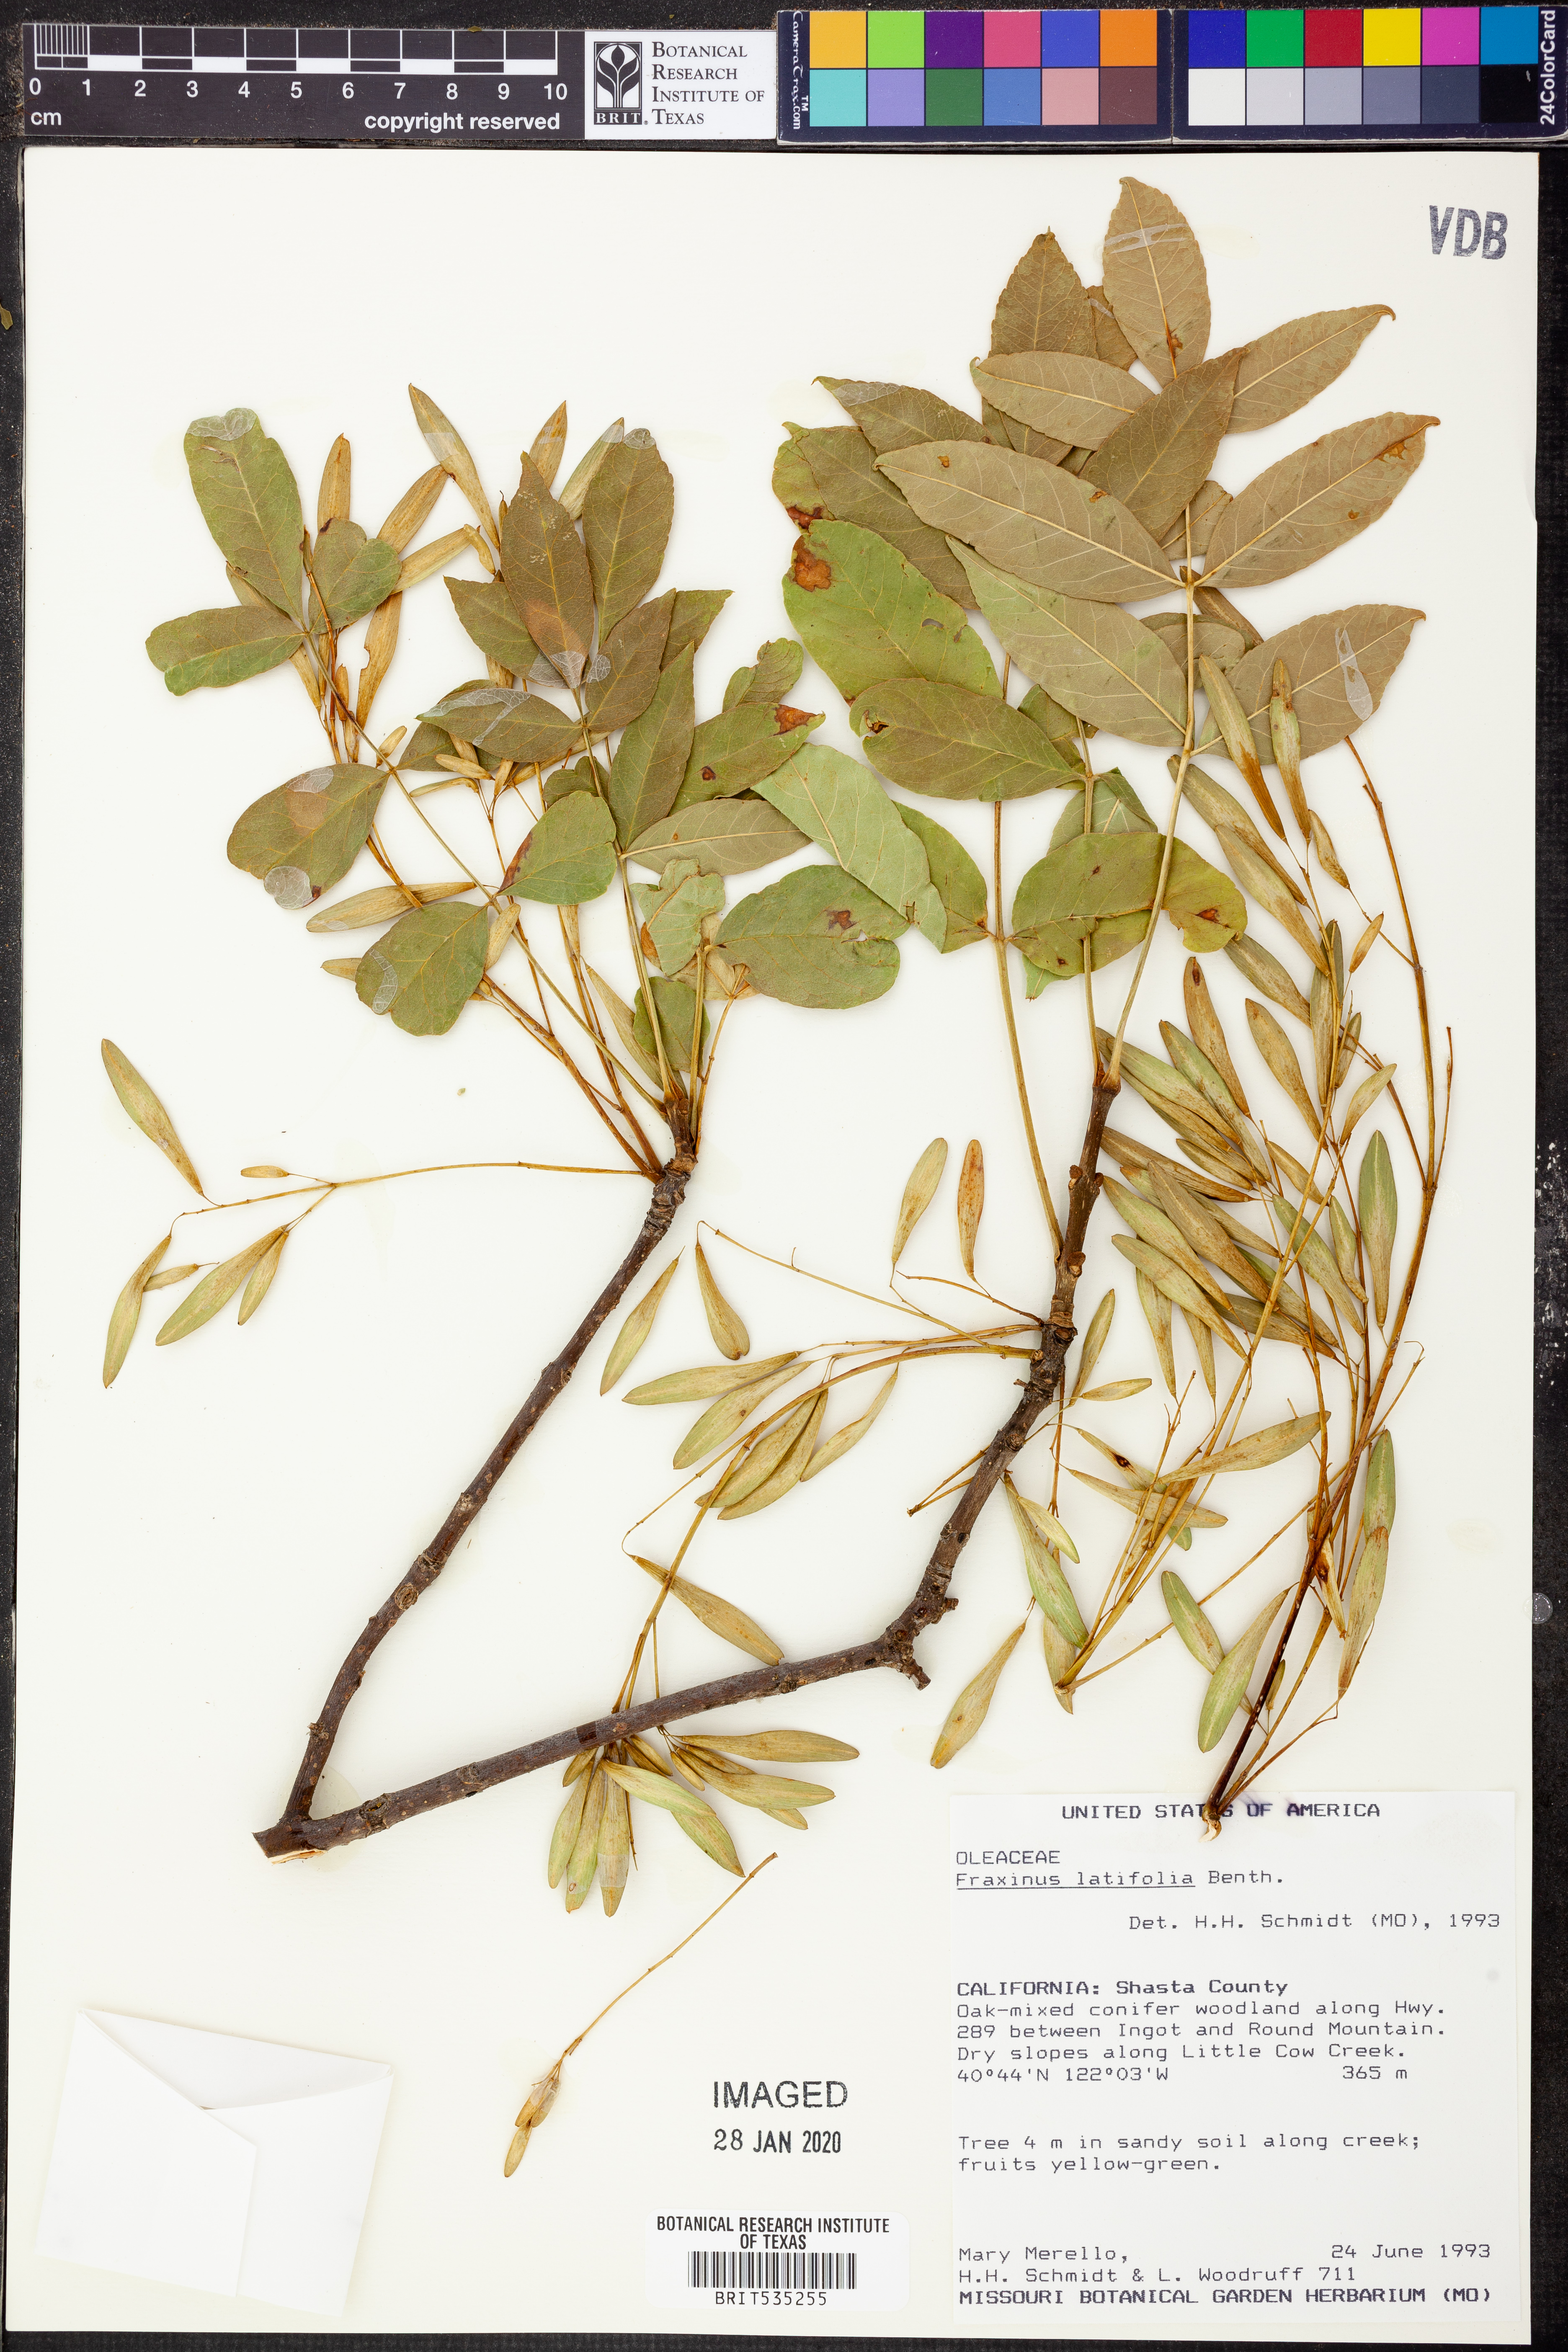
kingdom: Plantae
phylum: Tracheophyta
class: Magnoliopsida
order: Lamiales
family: Oleaceae
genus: Fraxinus
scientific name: Fraxinus latifolia
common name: Oregon ash
